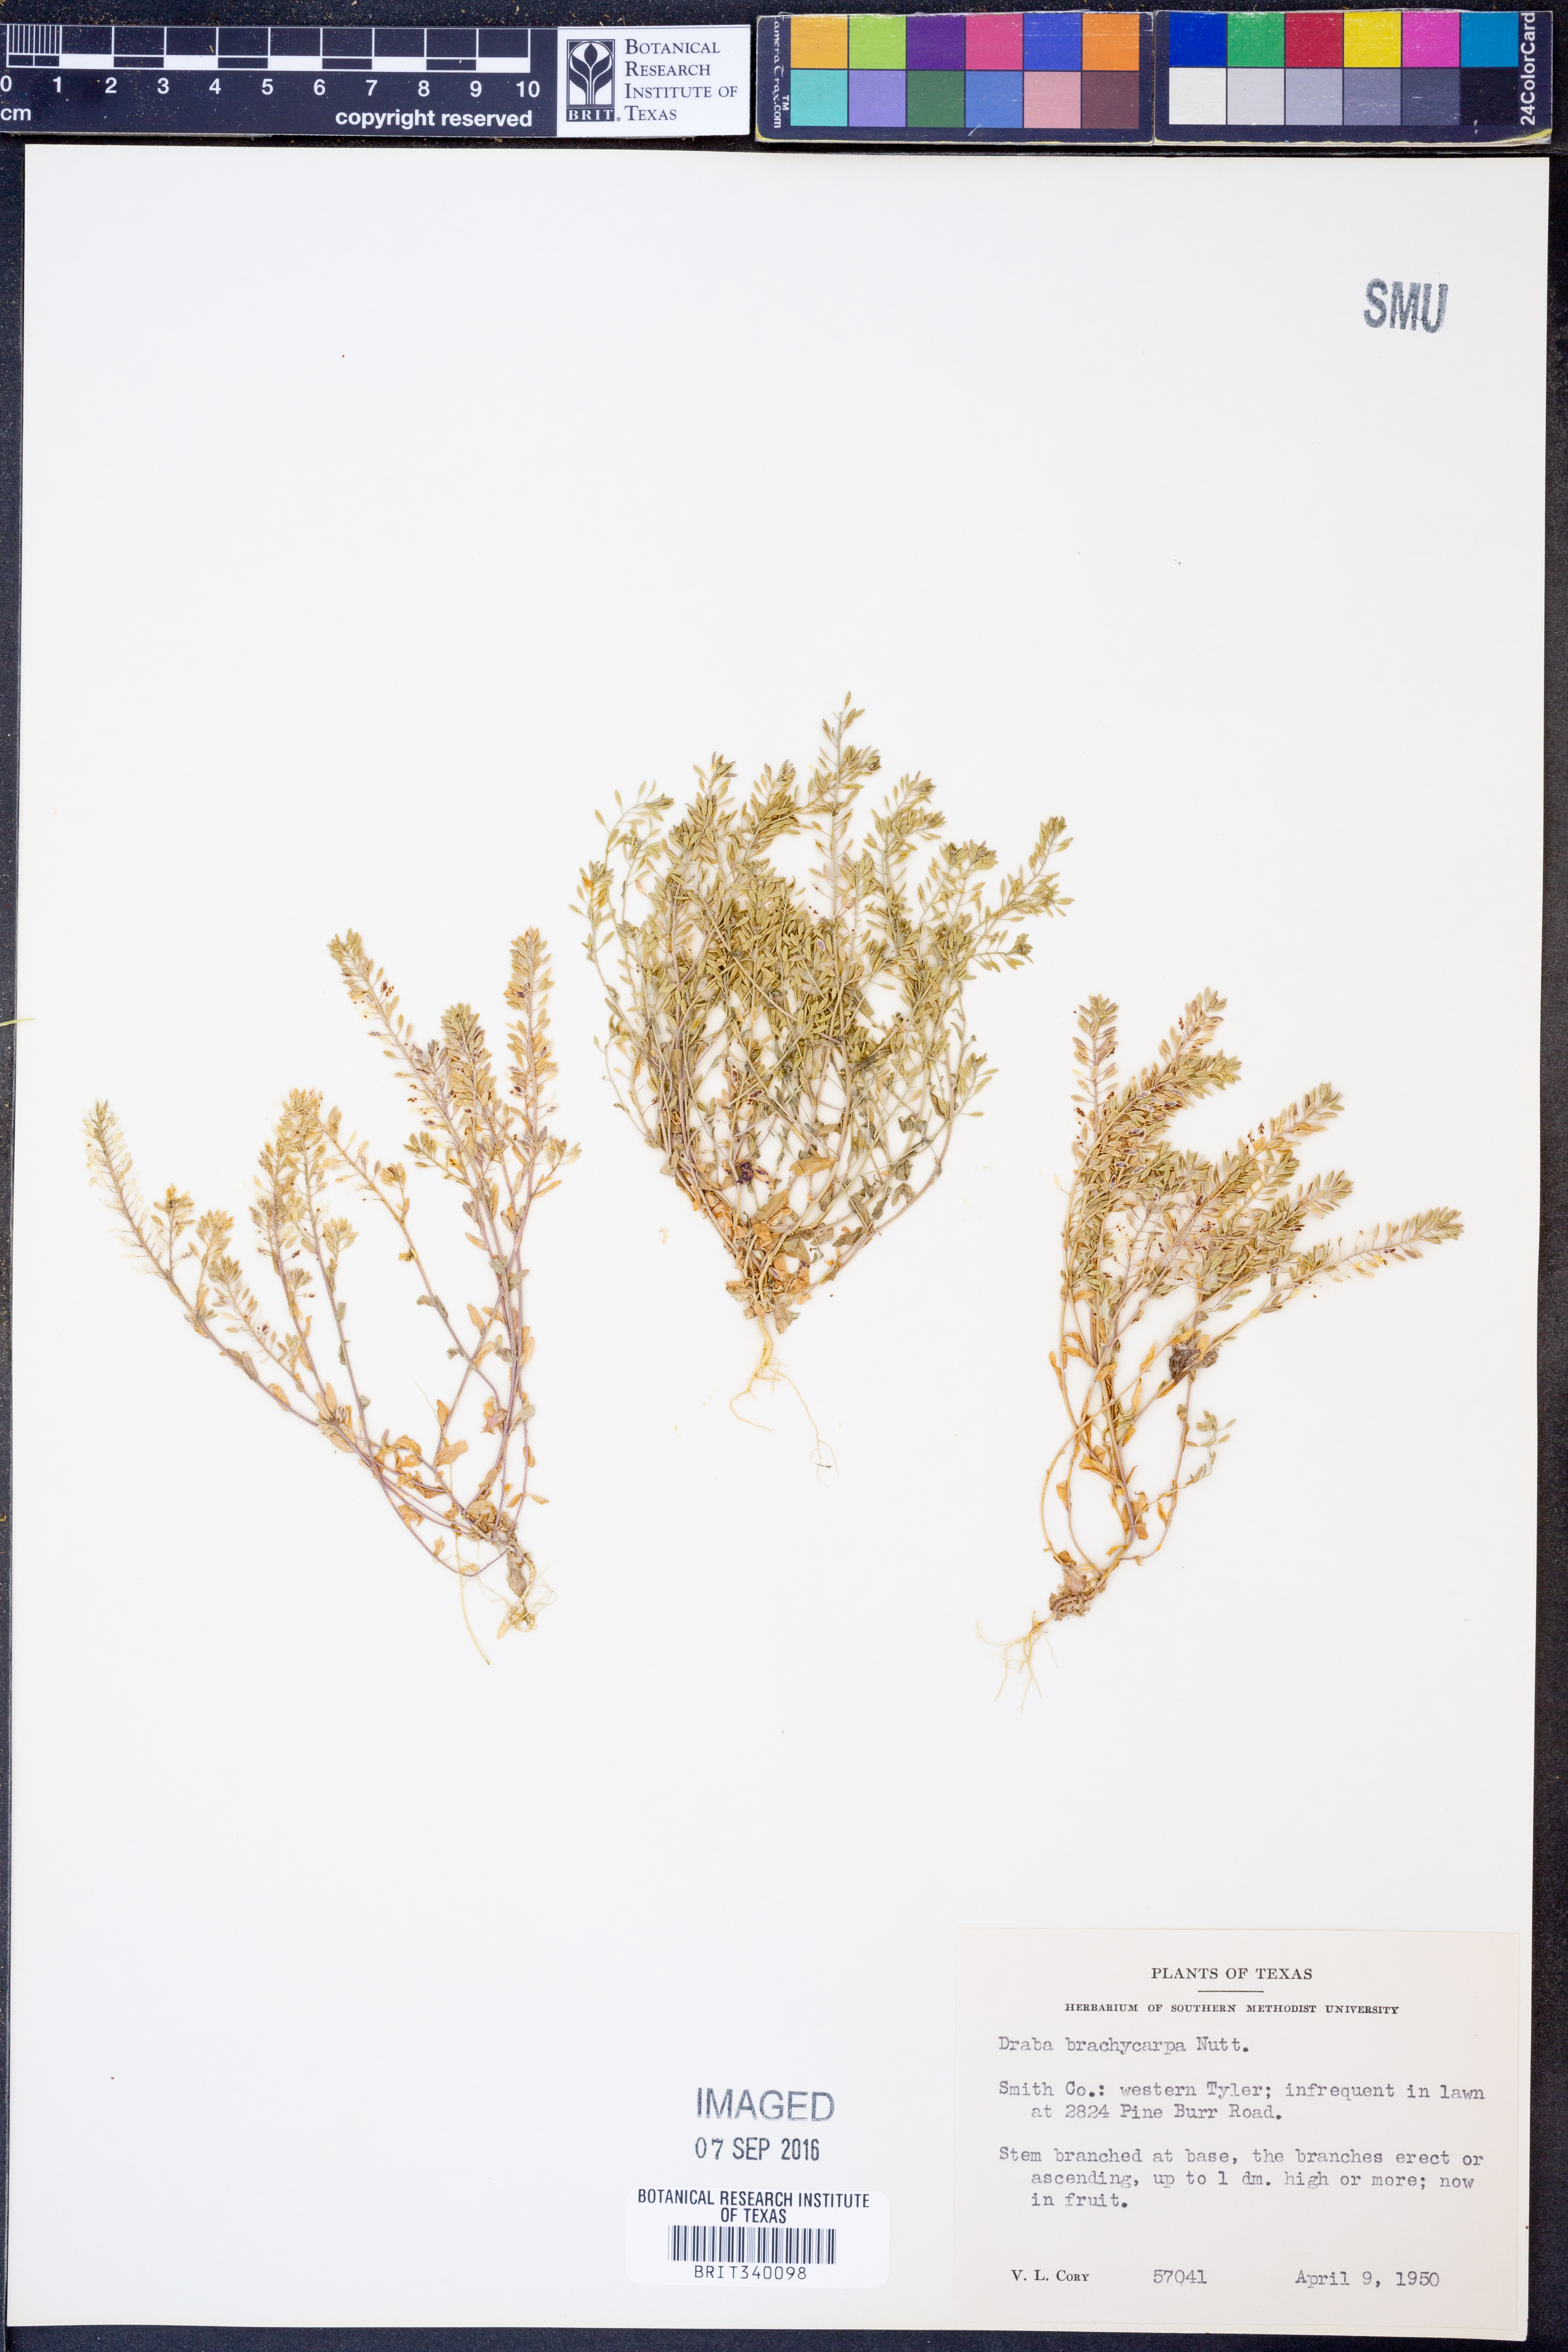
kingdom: Plantae
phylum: Tracheophyta
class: Magnoliopsida
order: Brassicales
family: Brassicaceae
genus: Abdra
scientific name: Abdra brachycarpa
